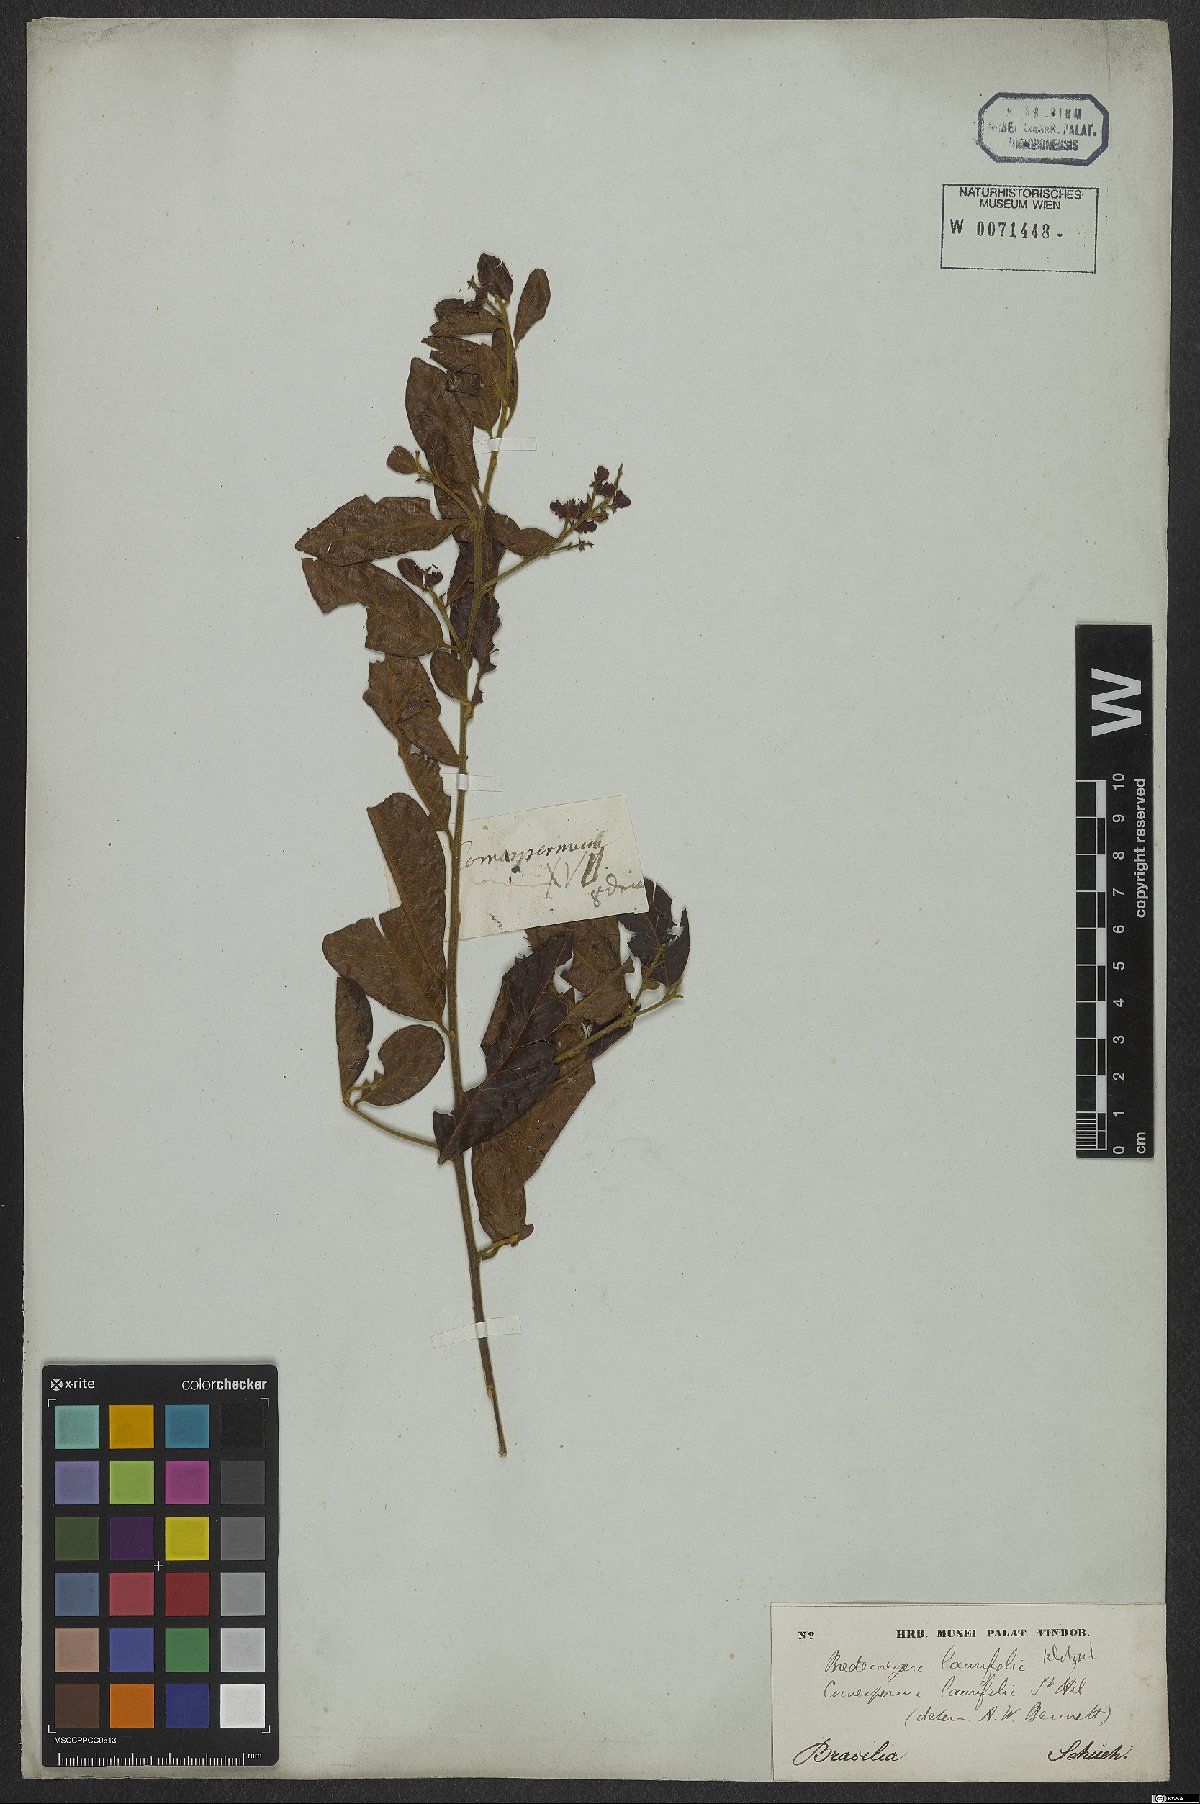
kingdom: Plantae
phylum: Tracheophyta
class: Magnoliopsida
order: Fabales
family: Polygalaceae
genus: Bredemeyera
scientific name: Bredemeyera laurifolia
